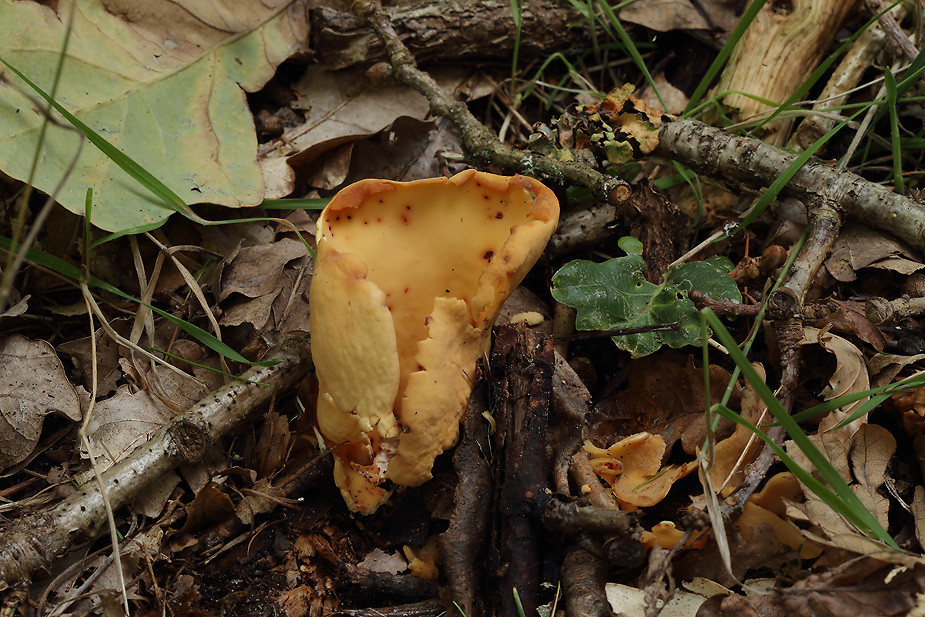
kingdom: Fungi
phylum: Ascomycota
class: Pezizomycetes
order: Pezizales
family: Otideaceae
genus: Otidea
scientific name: Otidea onotica
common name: æsel-ørebæger
